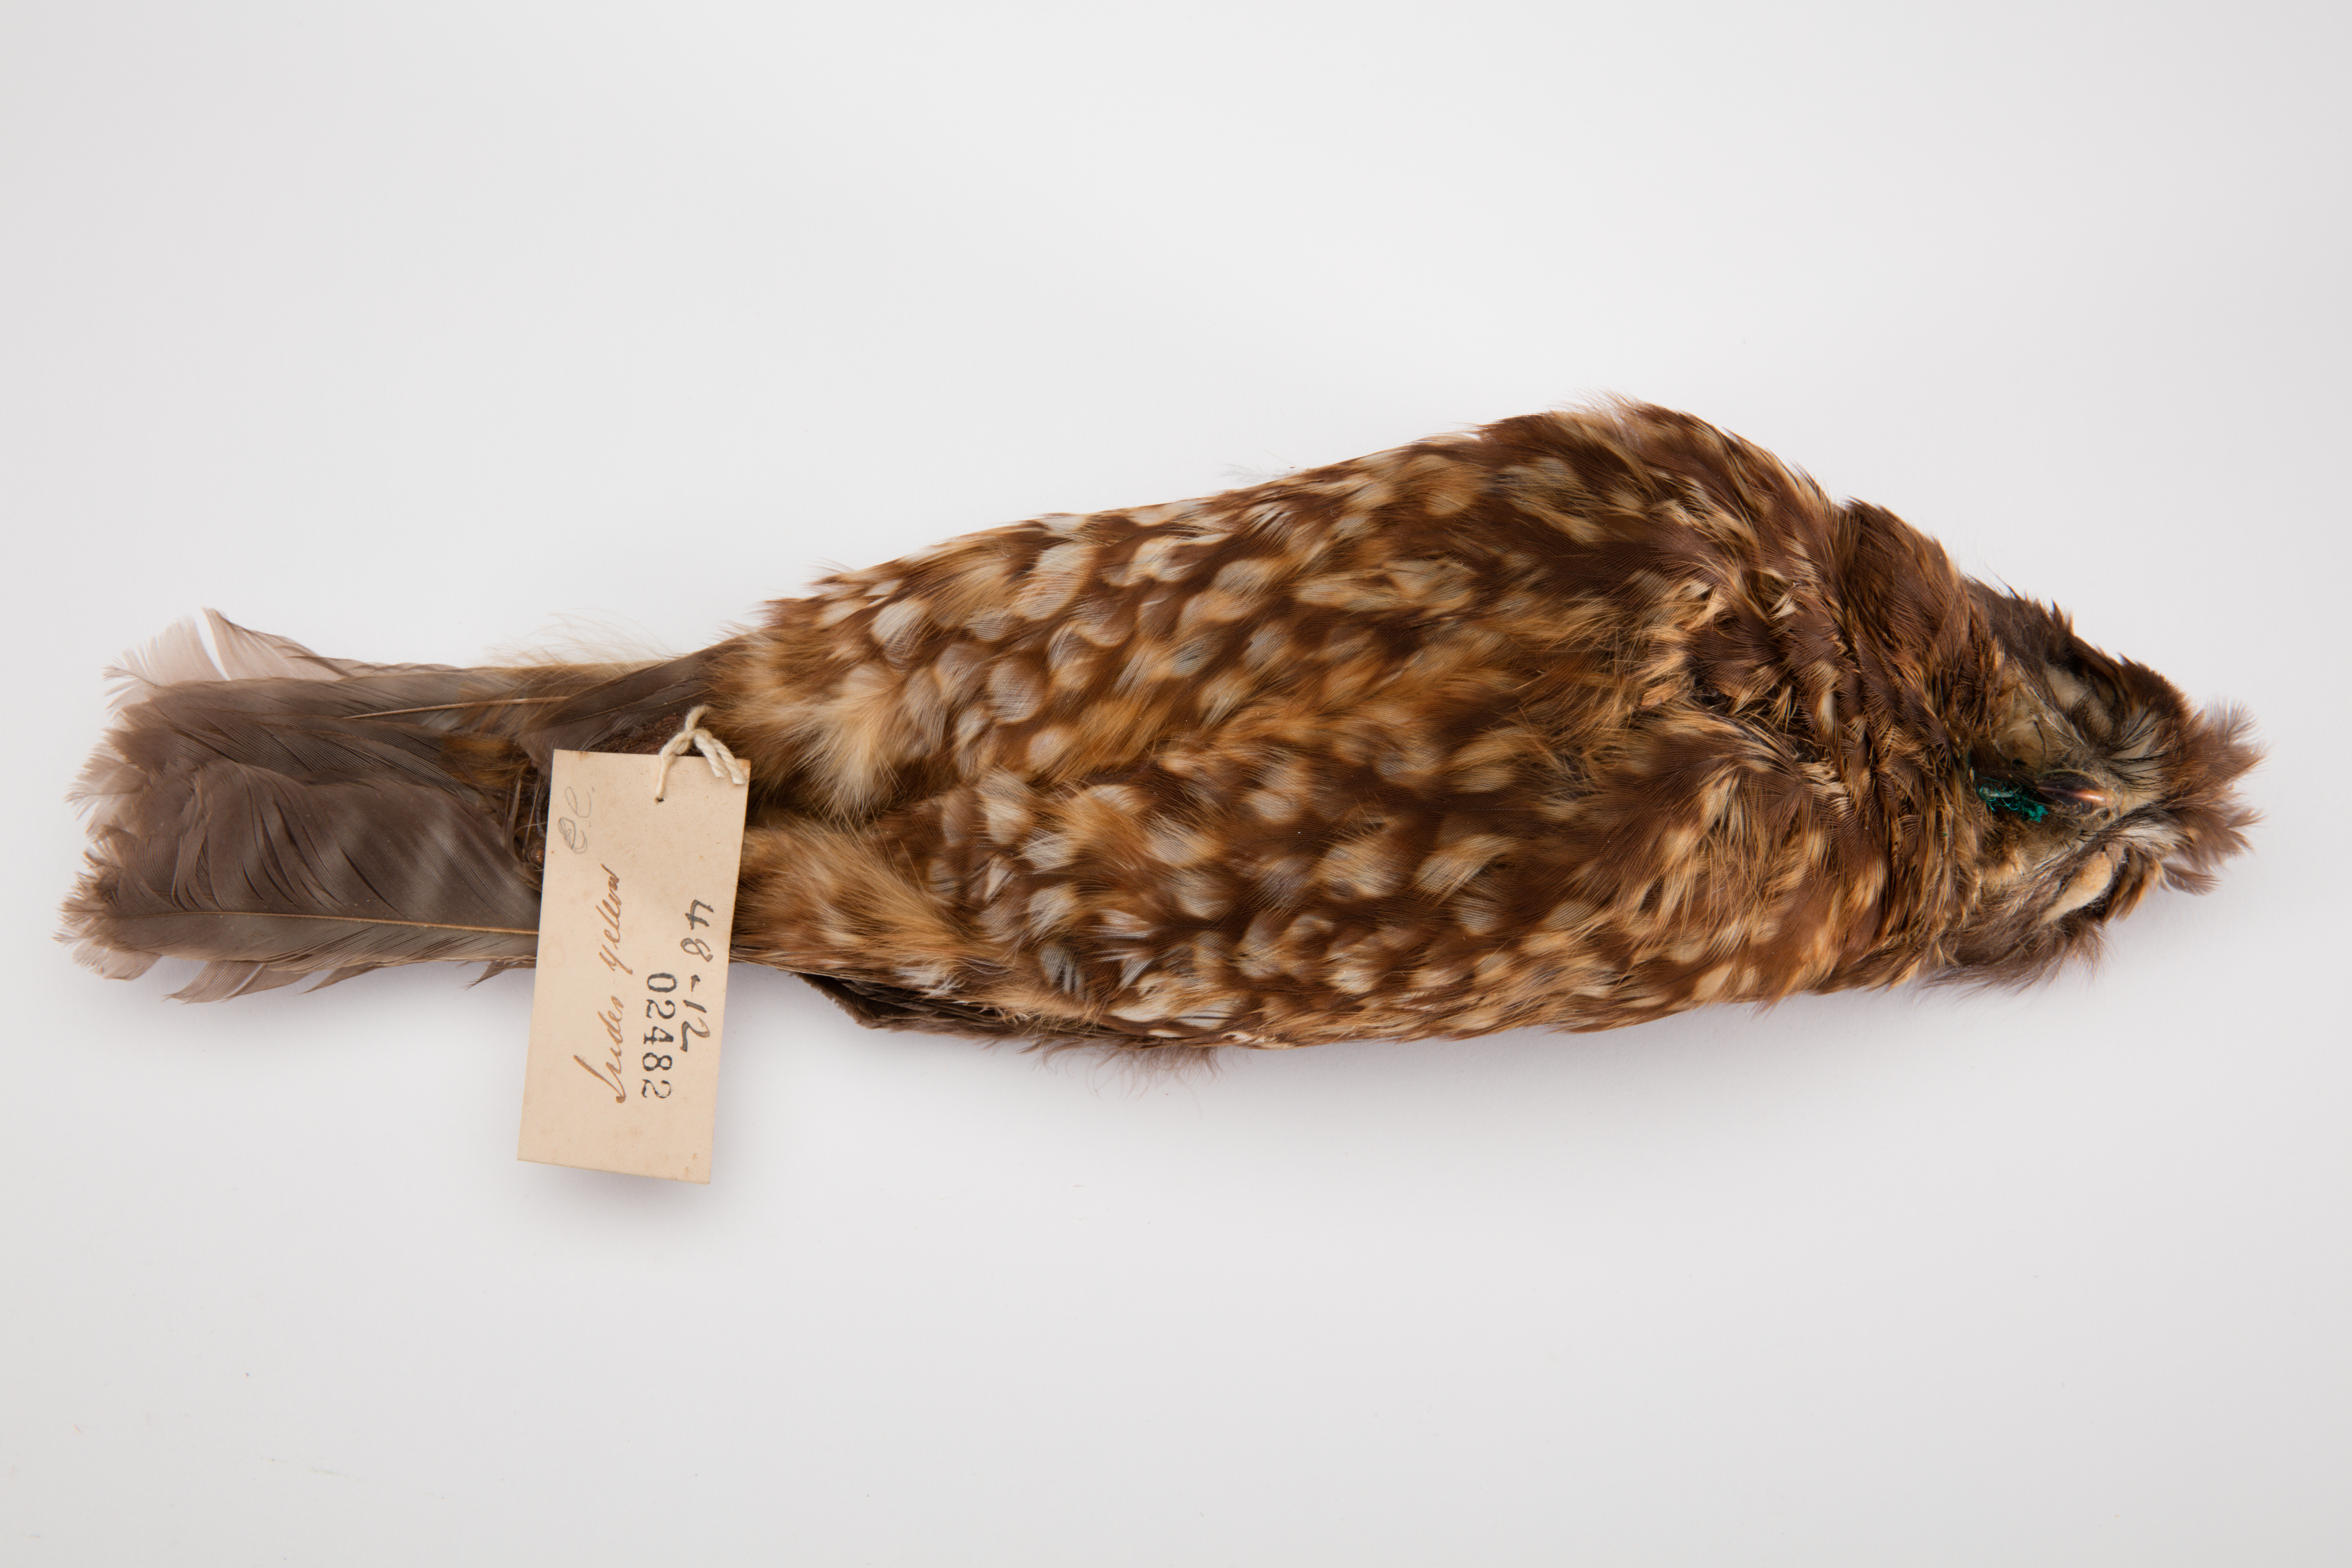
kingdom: Animalia
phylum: Chordata
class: Aves
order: Strigiformes
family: Strigidae
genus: Ninox
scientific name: Ninox novaeseelandiae
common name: Morepork
